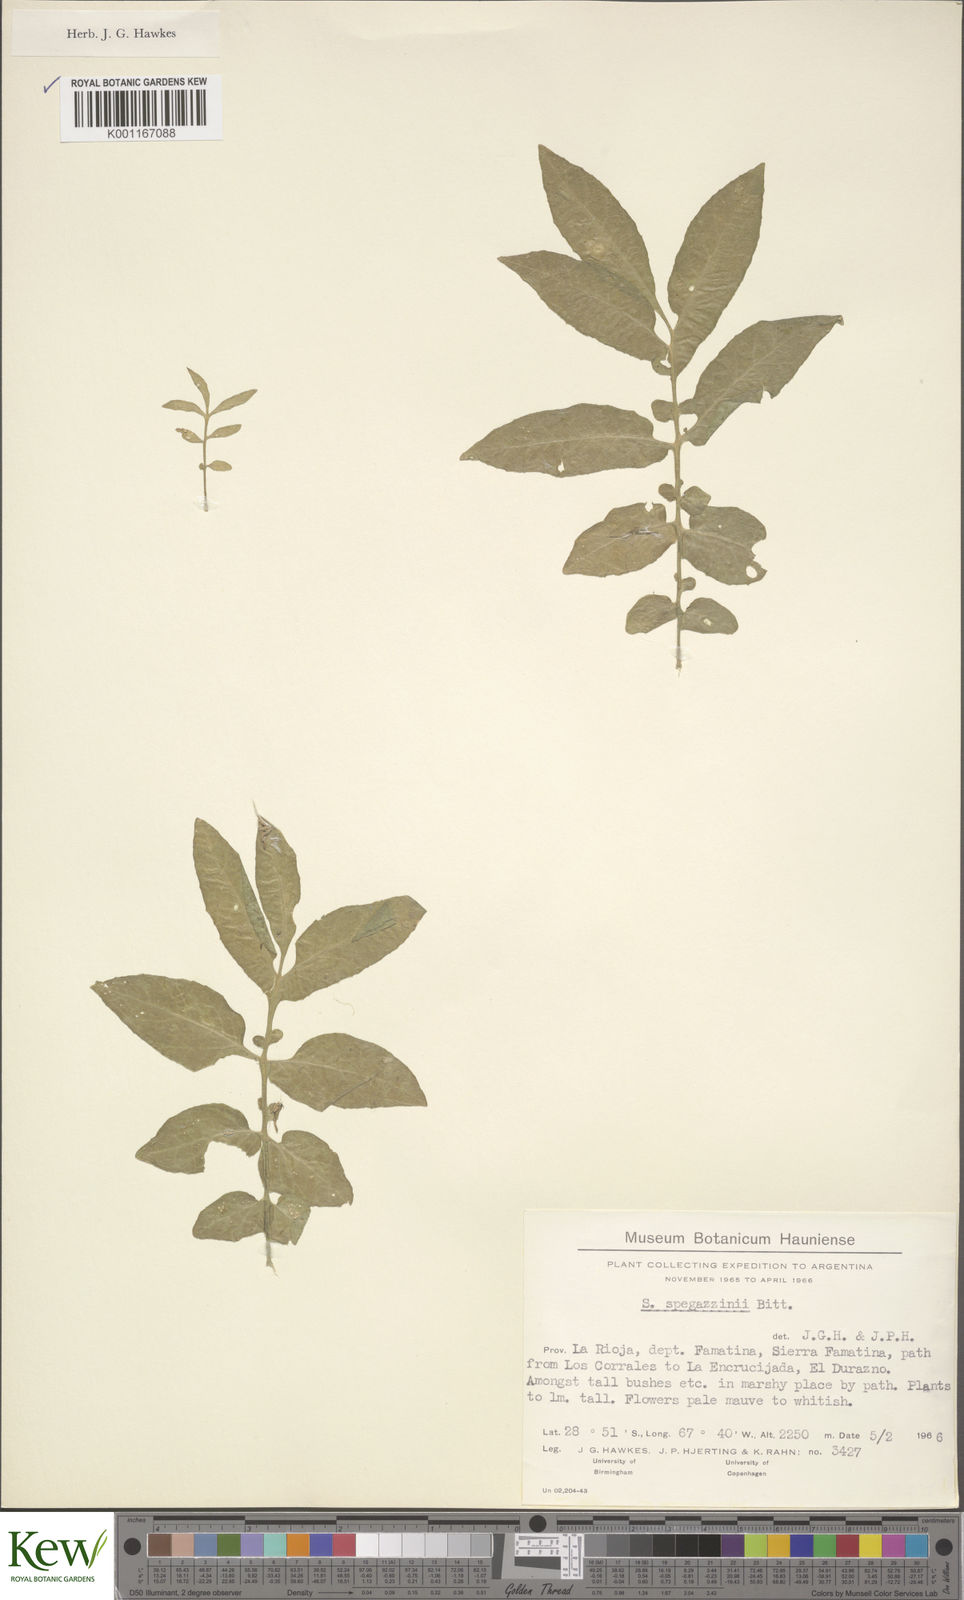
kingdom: Plantae
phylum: Tracheophyta
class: Magnoliopsida
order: Solanales
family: Solanaceae
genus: Solanum
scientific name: Solanum brevicaule
